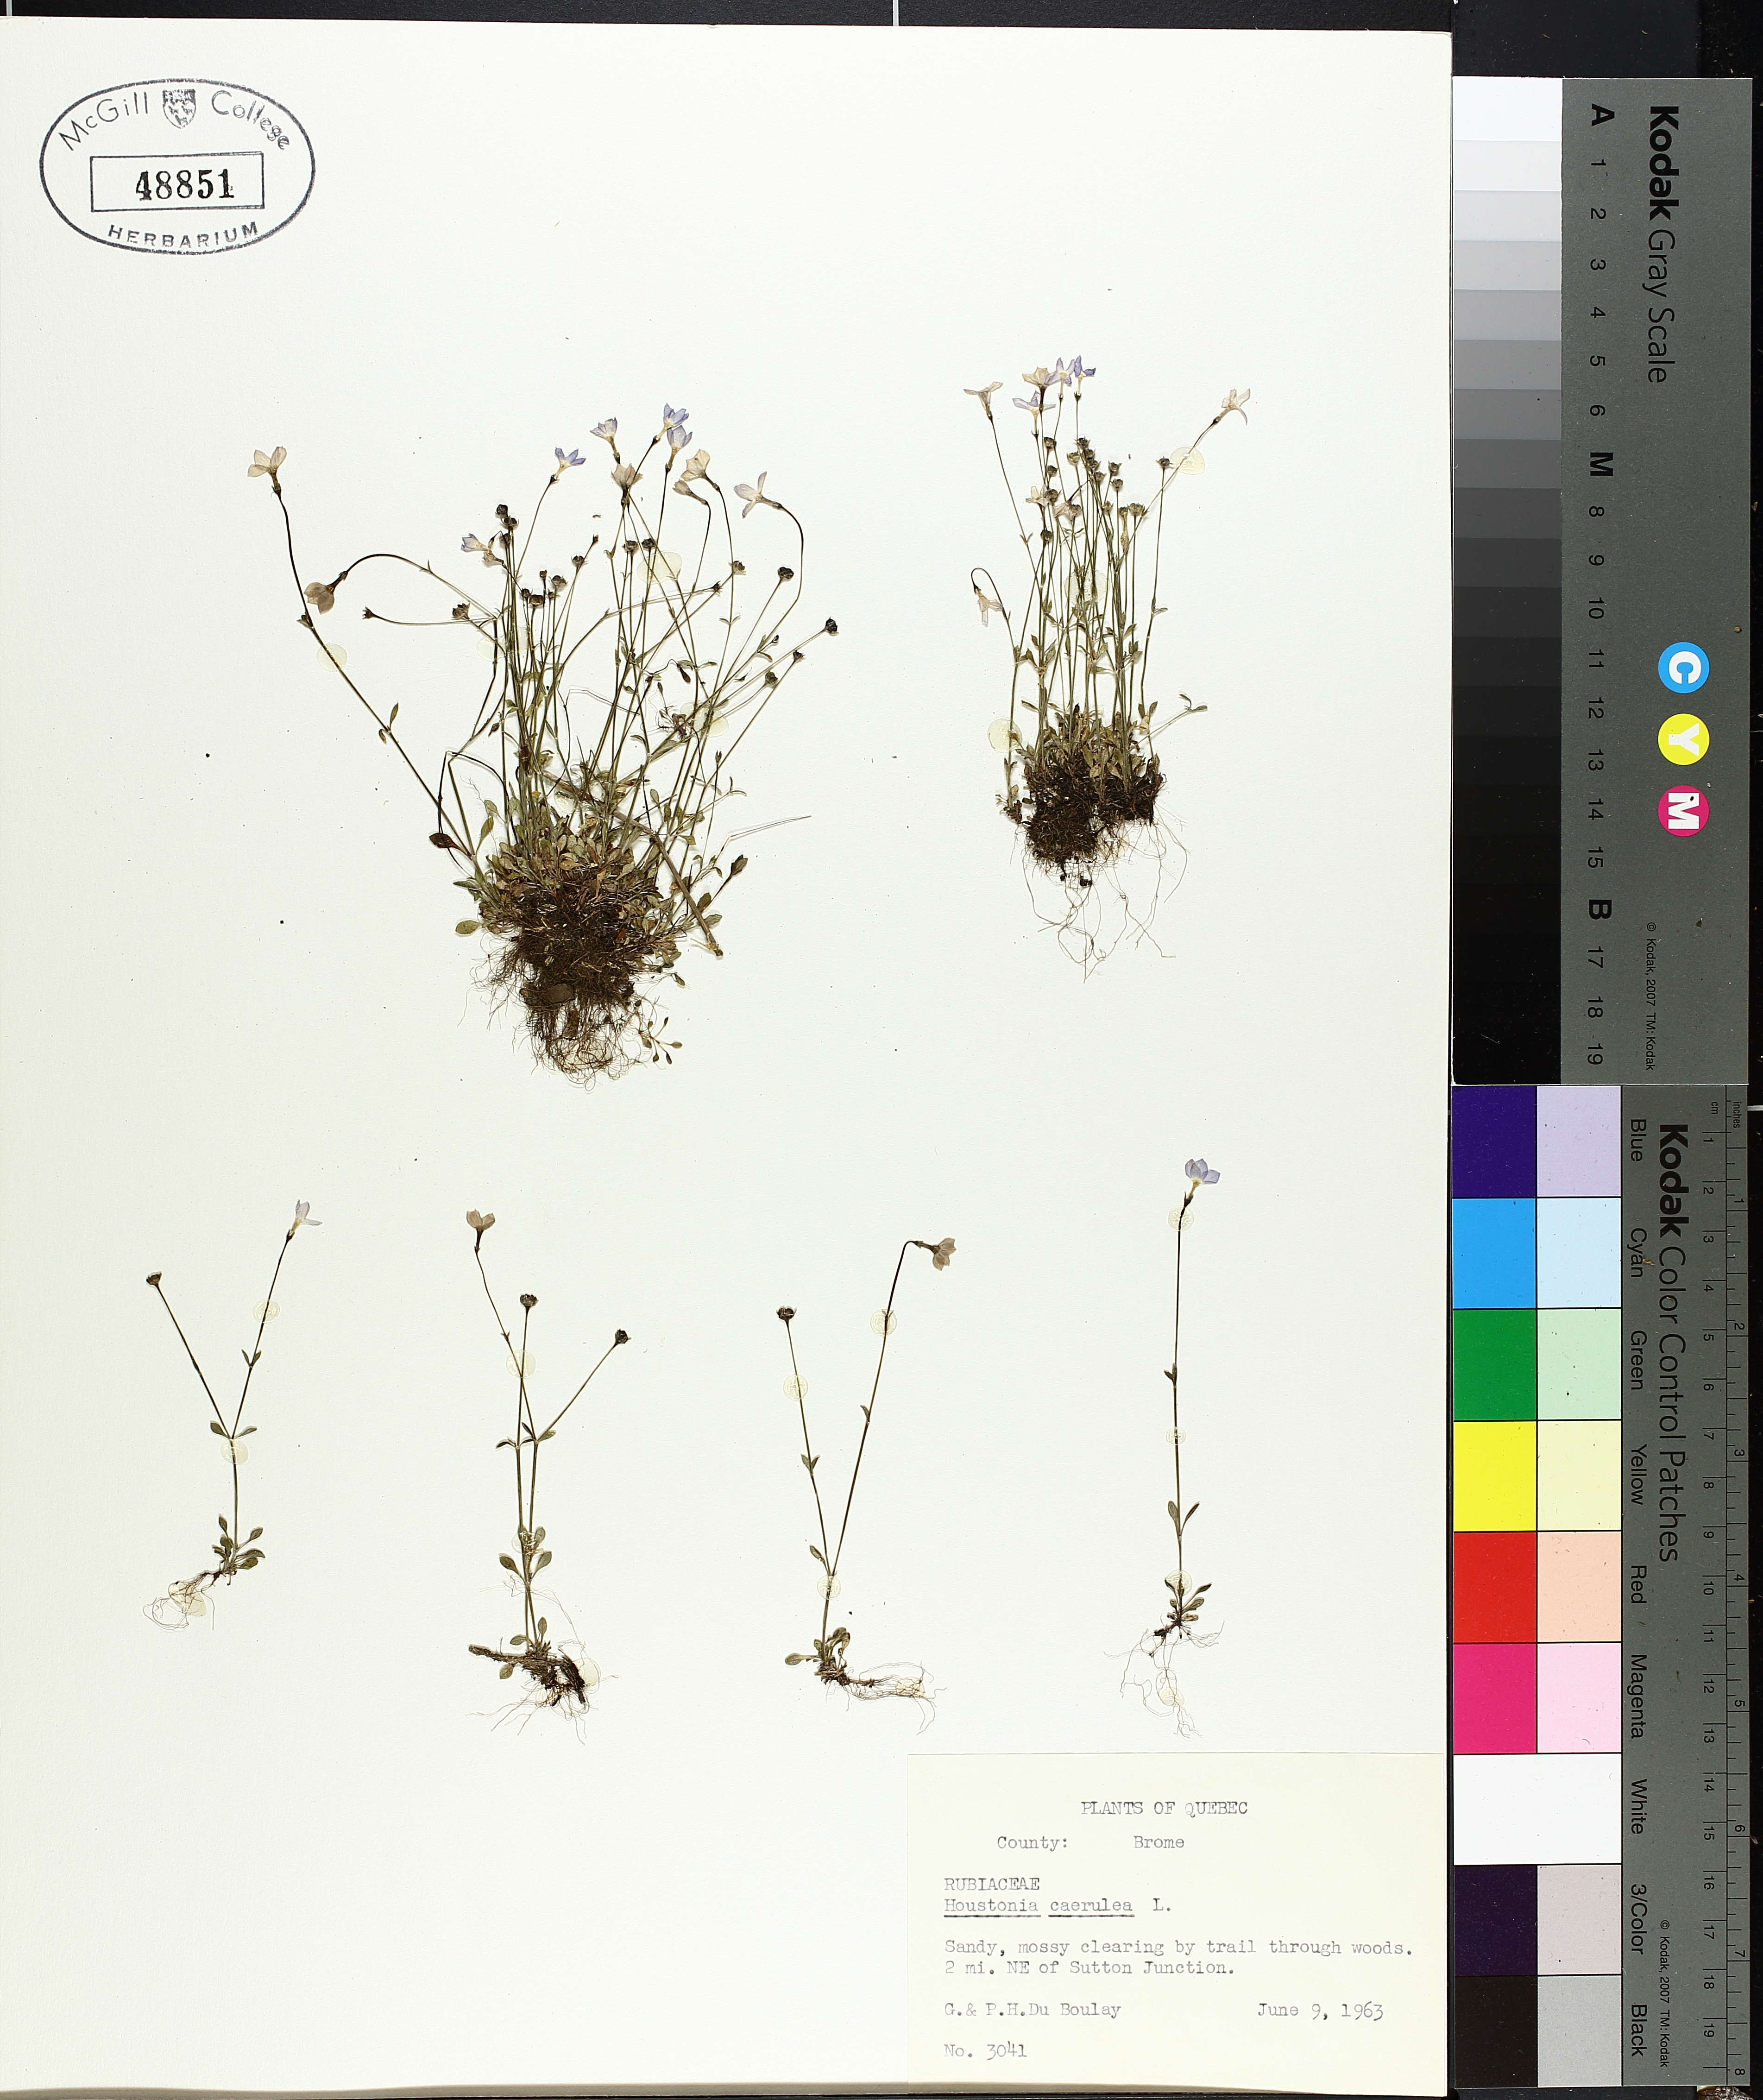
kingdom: Plantae
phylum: Tracheophyta
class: Magnoliopsida
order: Gentianales
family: Rubiaceae
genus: Houstonia
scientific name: Houstonia caerulea
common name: Bluets
